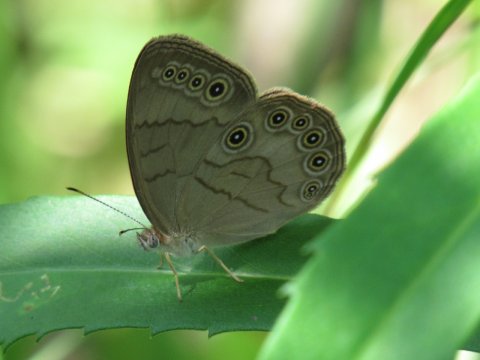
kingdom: Animalia
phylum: Arthropoda
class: Insecta
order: Lepidoptera
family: Nymphalidae
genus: Lethe
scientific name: Lethe eurydice
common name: Appalachian Eyed Brown
